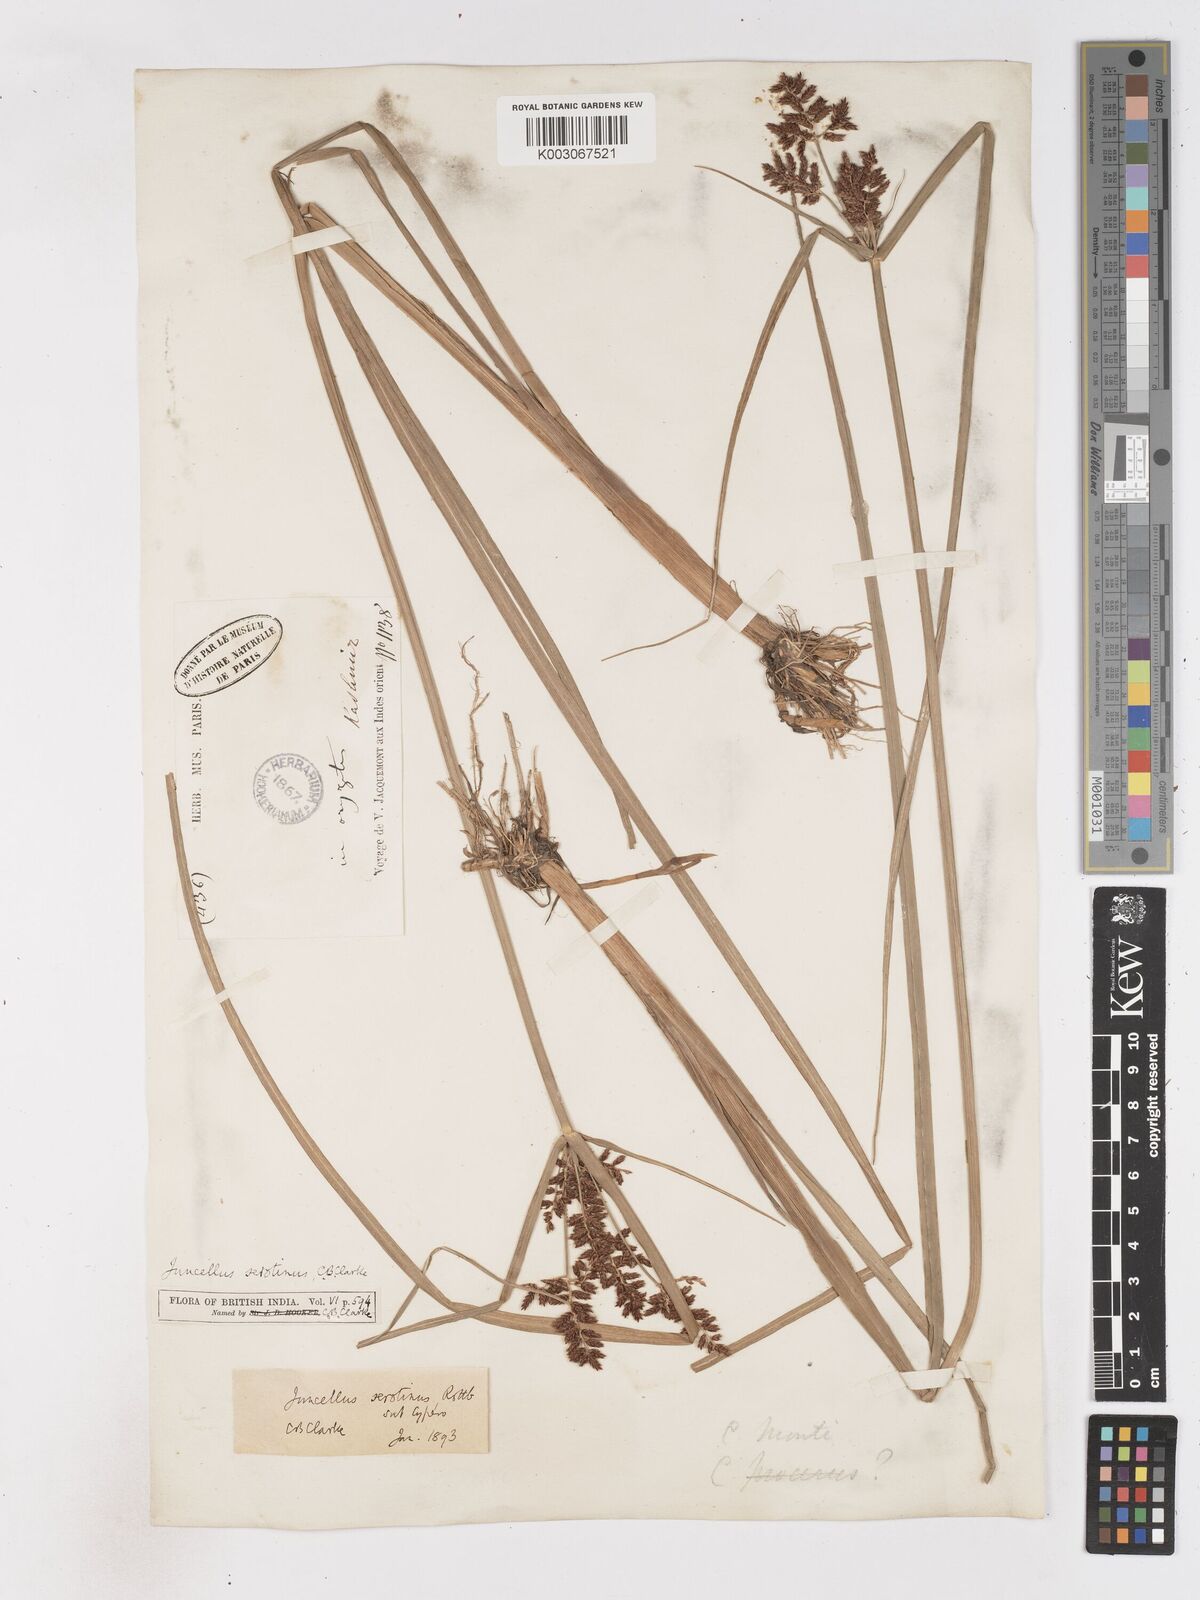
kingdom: Plantae
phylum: Tracheophyta
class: Liliopsida
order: Poales
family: Cyperaceae
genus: Cyperus
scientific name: Cyperus serotinus
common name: Tidalmarsh flatsedge
